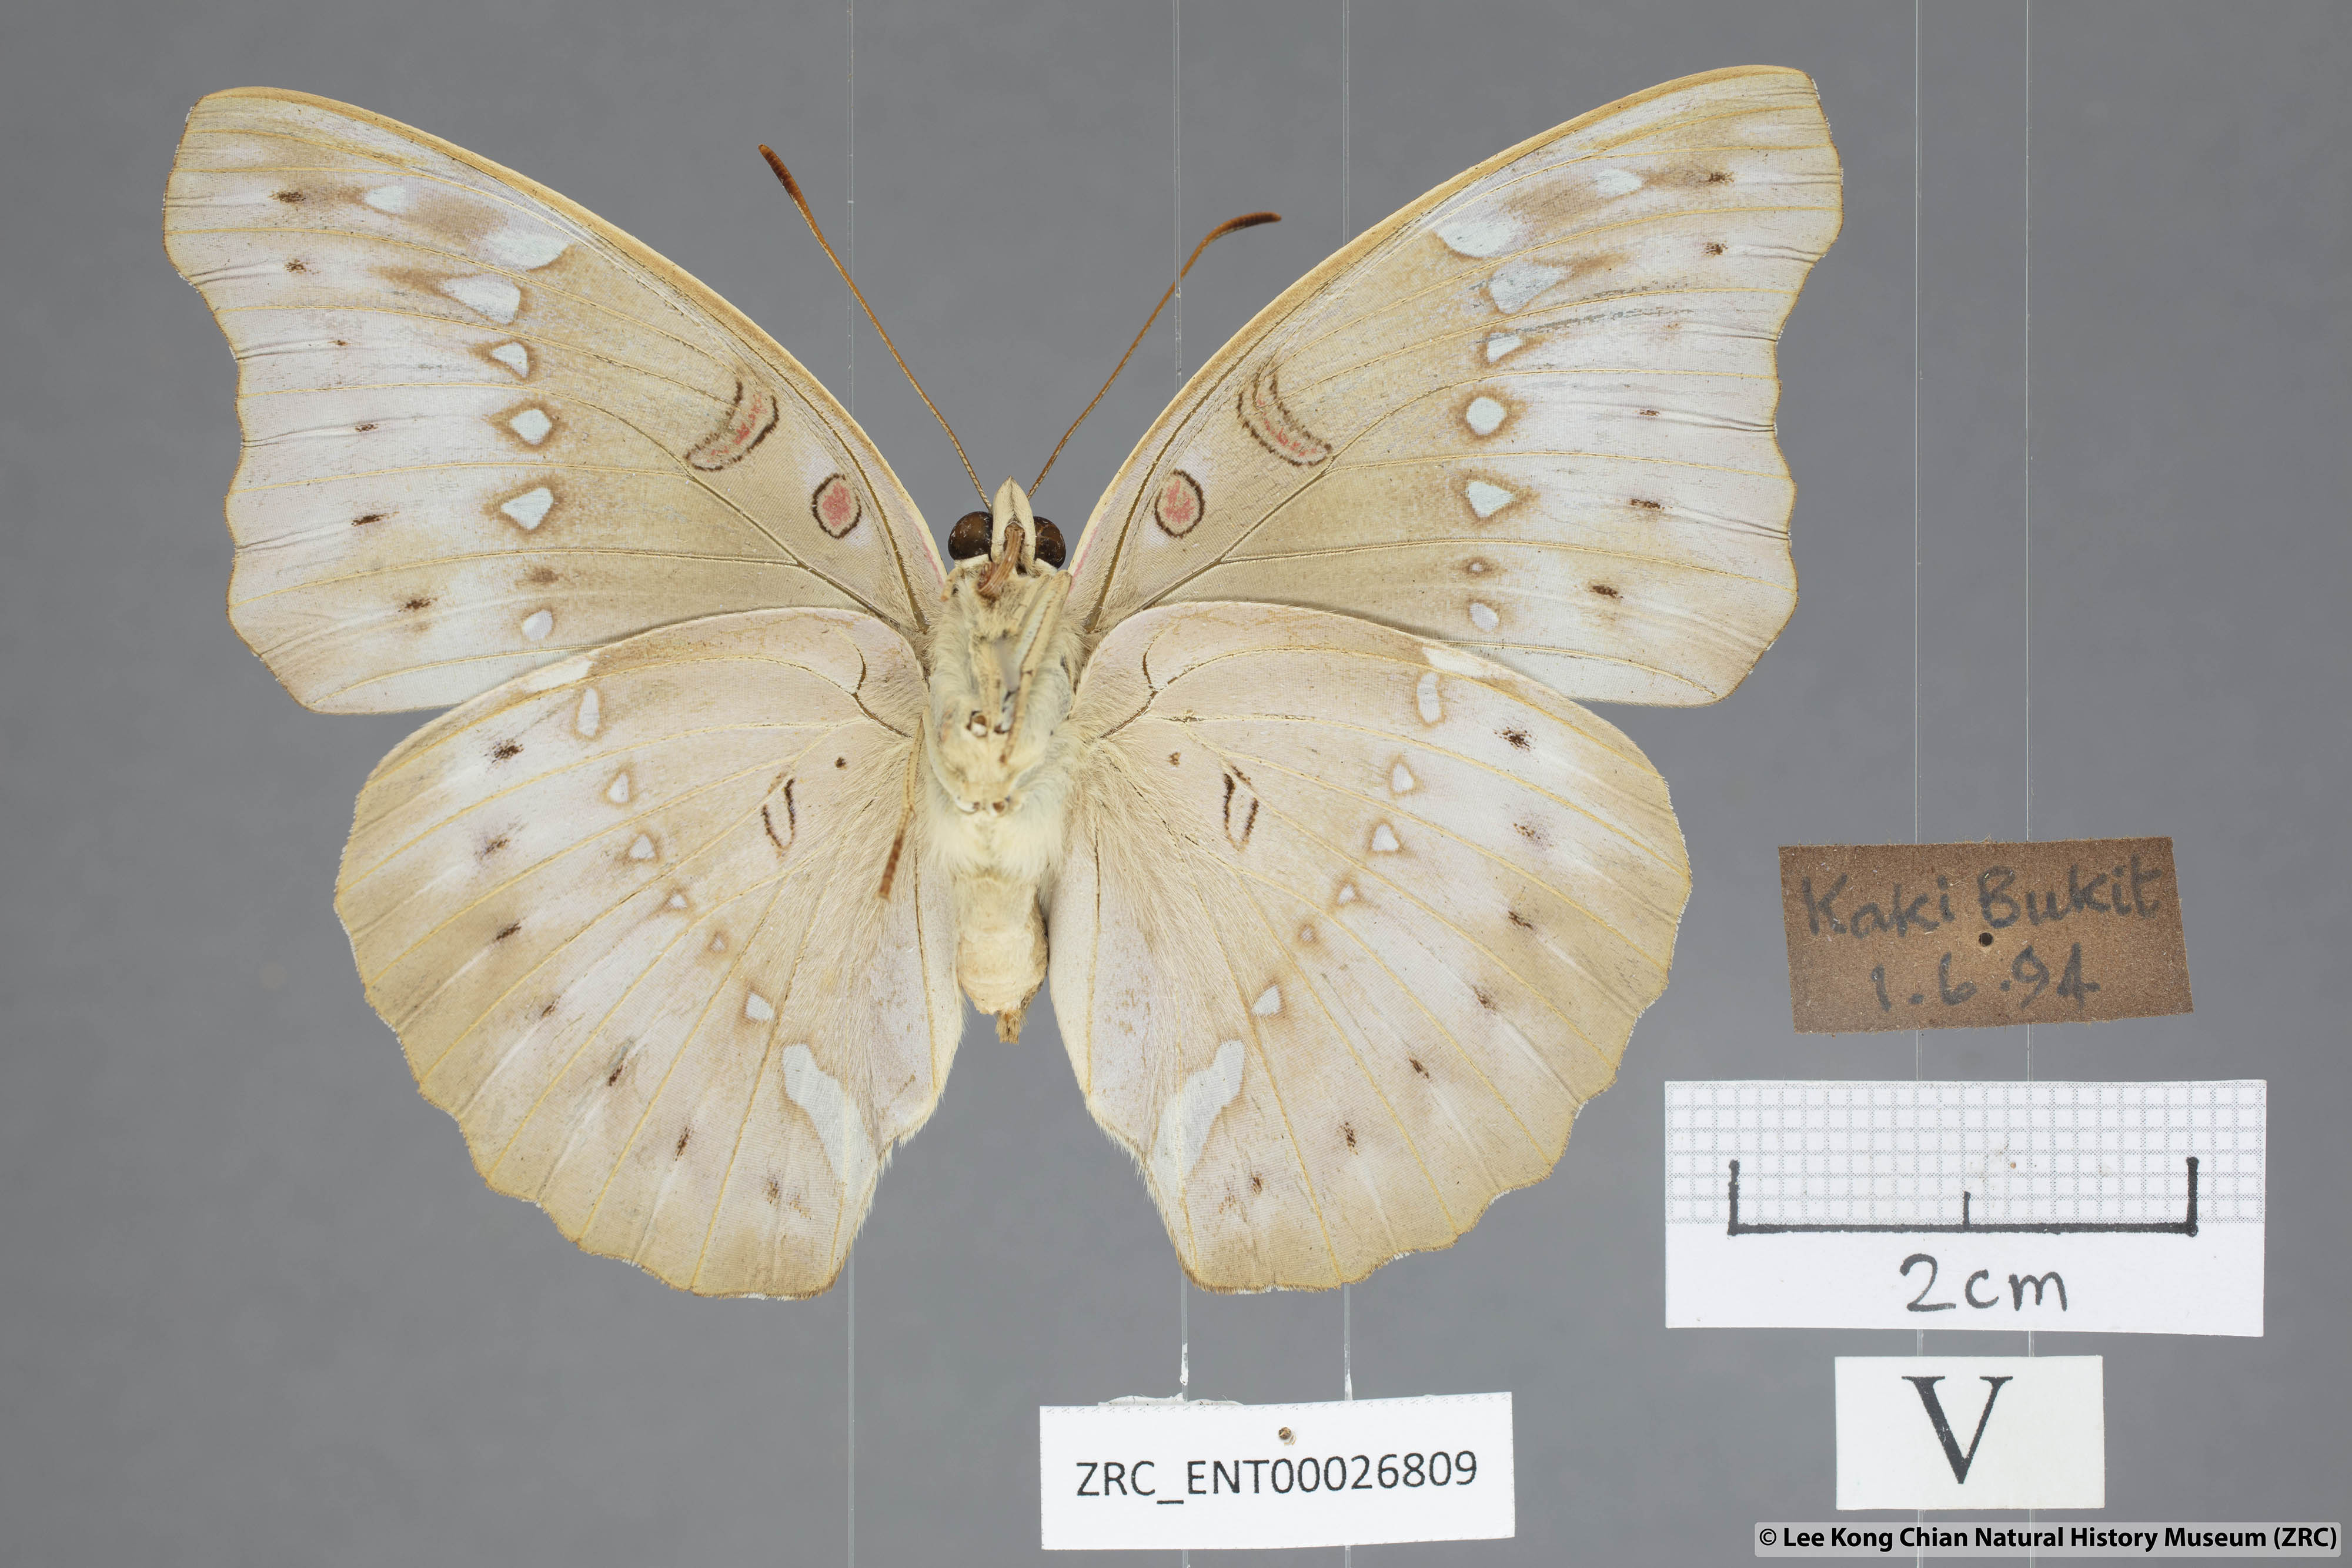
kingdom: Animalia
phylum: Arthropoda
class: Insecta
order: Lepidoptera
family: Nymphalidae
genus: Euthalia
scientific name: Euthalia Bassarona teuta
